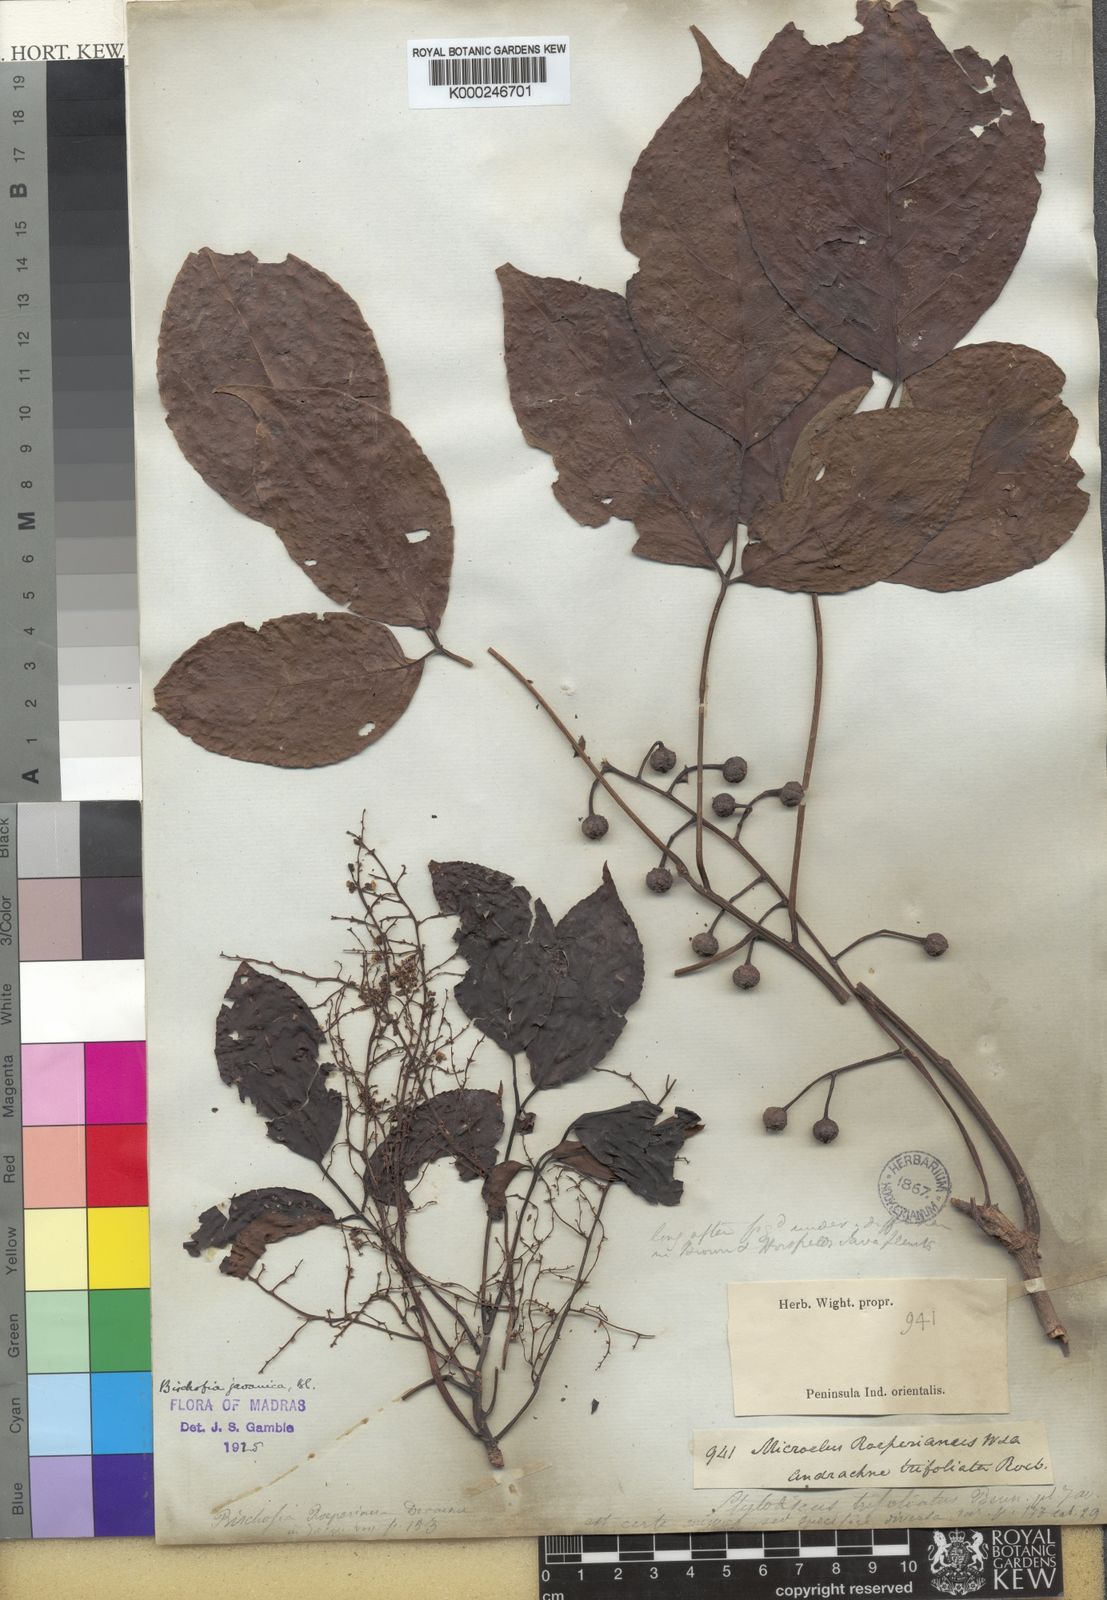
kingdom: Plantae
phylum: Tracheophyta
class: Magnoliopsida
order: Malpighiales
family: Phyllanthaceae
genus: Bischofia
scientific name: Bischofia javanica
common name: Javanese bishopwood
